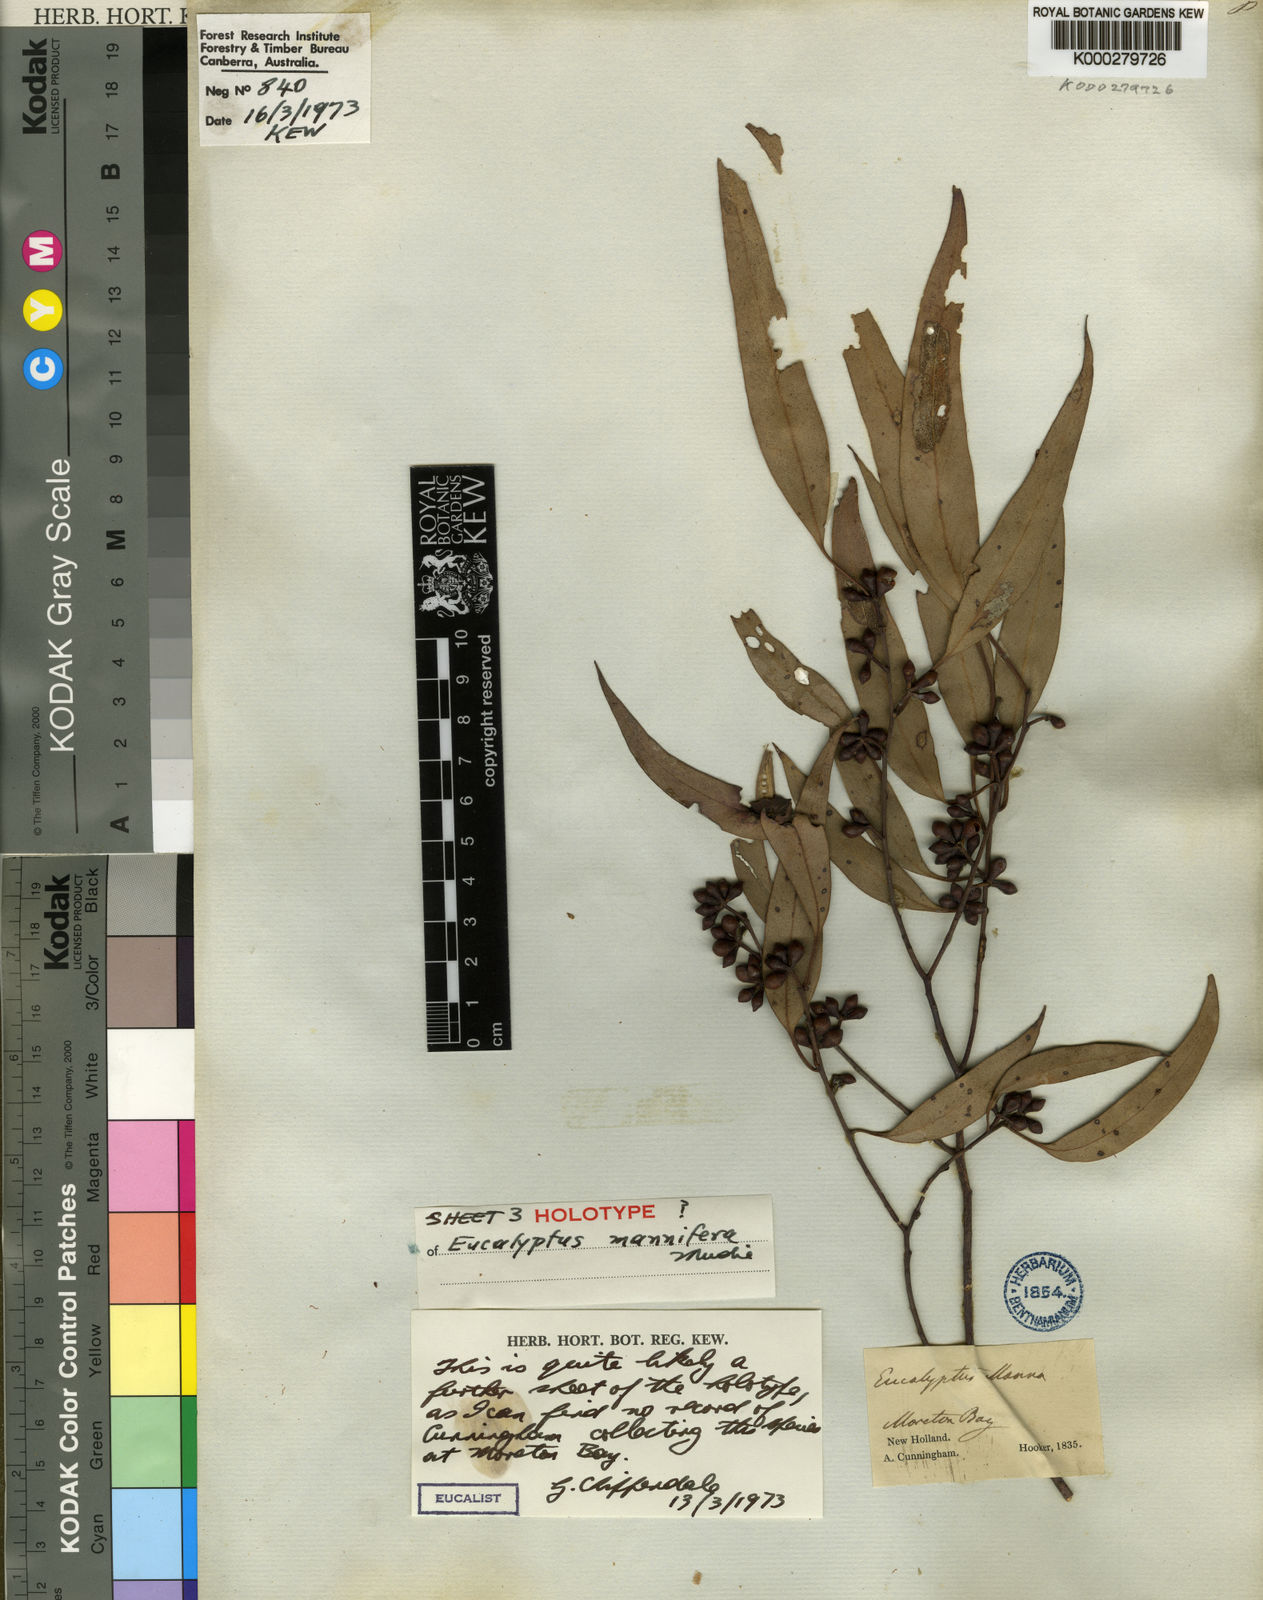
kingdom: Plantae
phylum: Tracheophyta
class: Magnoliopsida
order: Myrtales
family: Myrtaceae
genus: Eucalyptus
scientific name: Eucalyptus mannifera
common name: Manna gum
